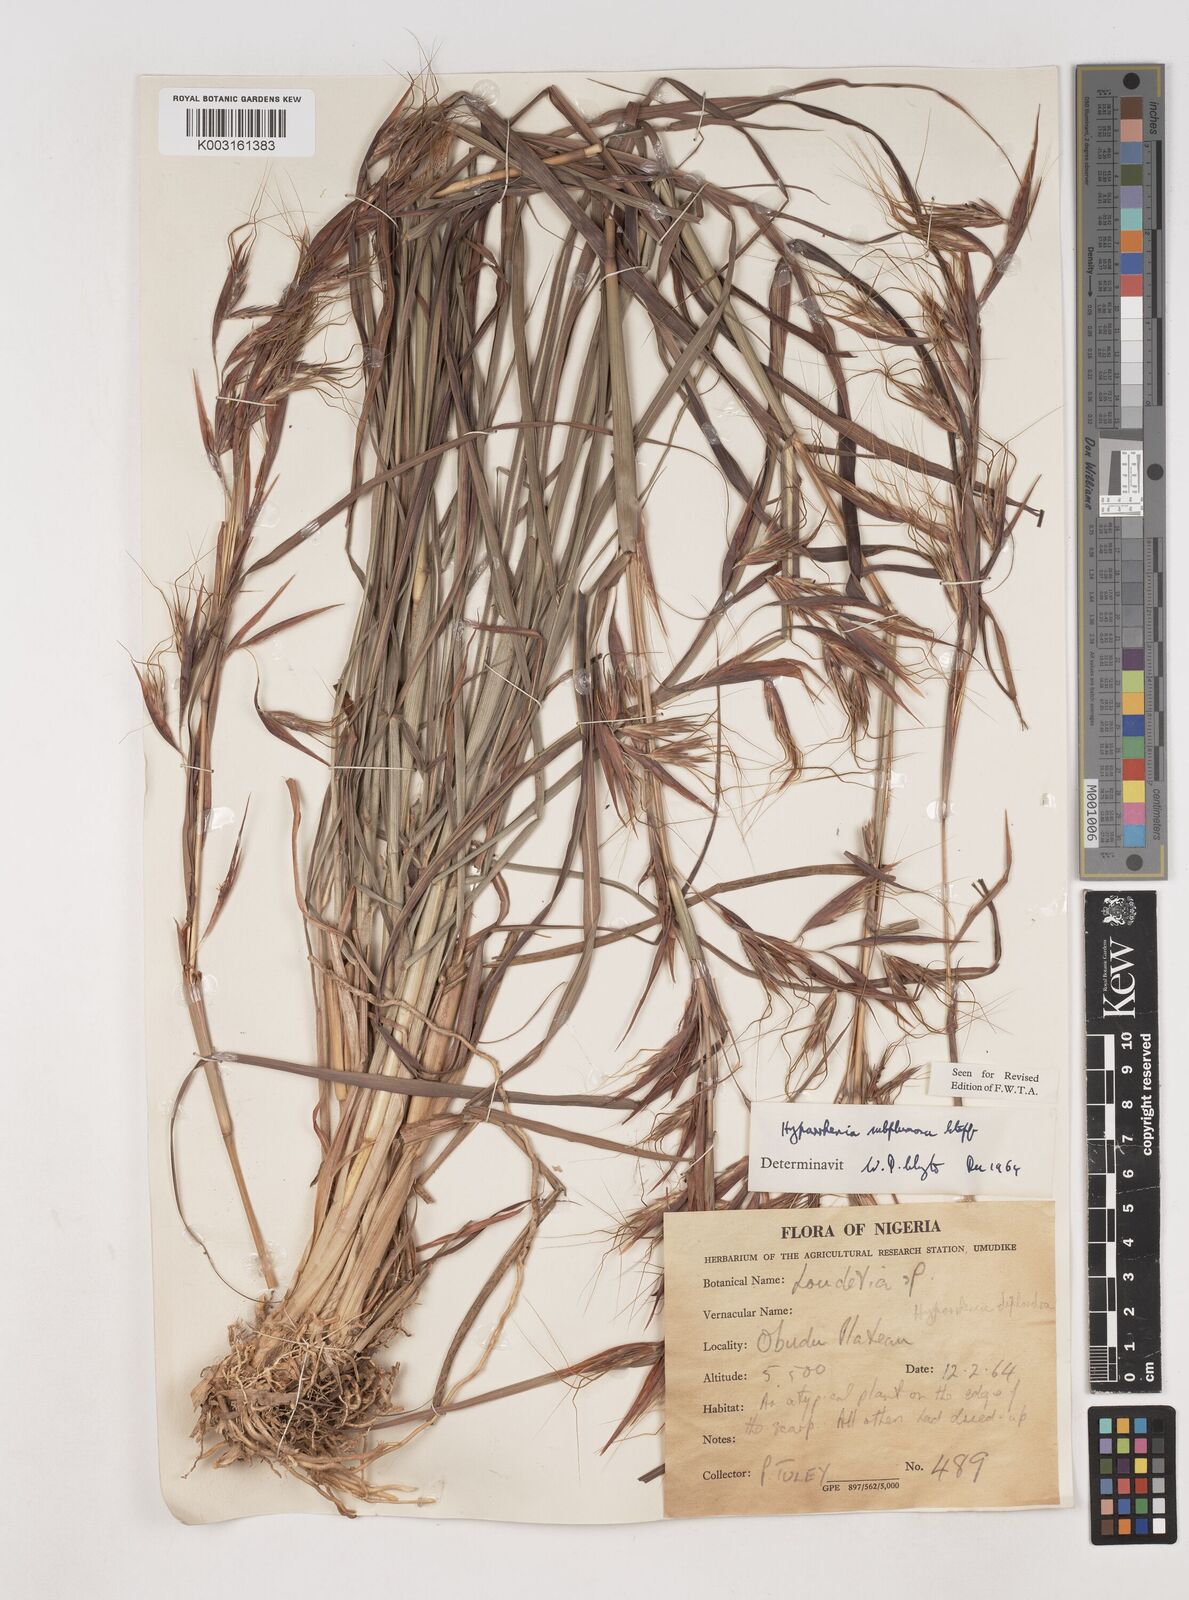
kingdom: Plantae
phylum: Tracheophyta
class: Liliopsida
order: Poales
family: Poaceae
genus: Hyparrhenia
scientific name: Hyparrhenia subplumosa
